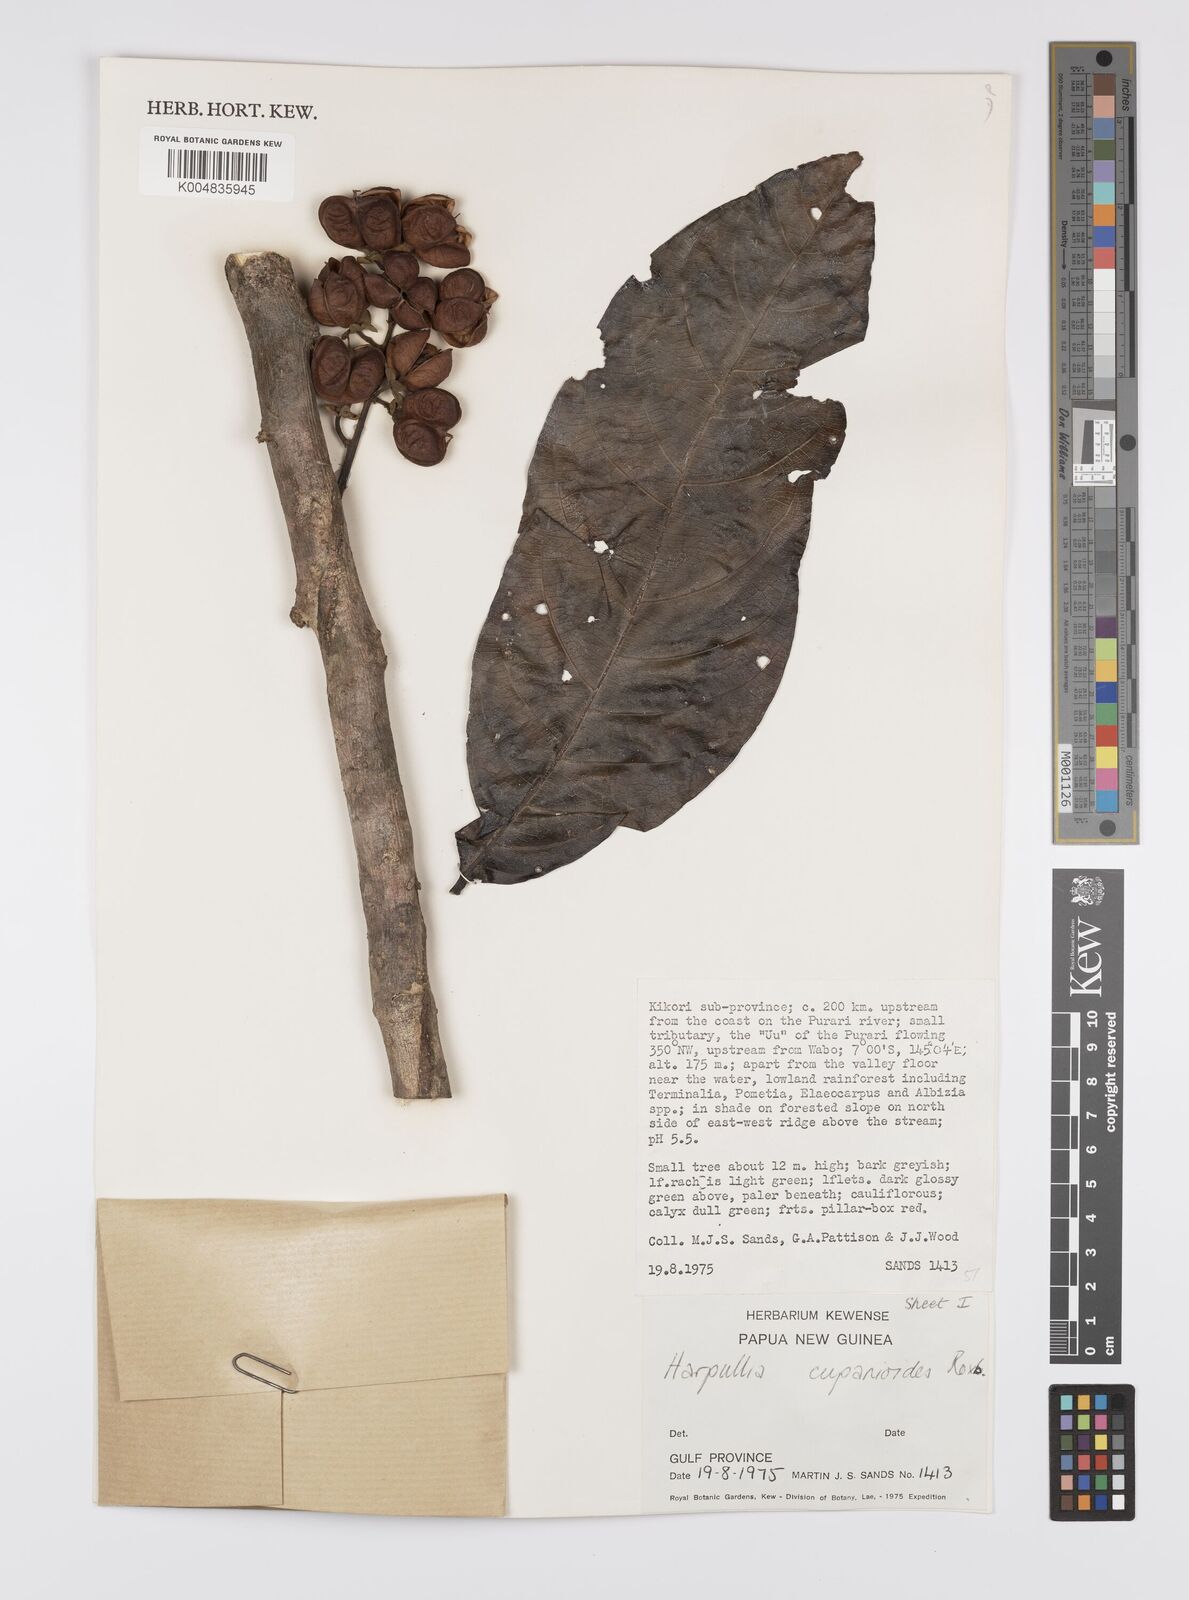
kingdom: Plantae
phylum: Tracheophyta
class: Magnoliopsida
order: Sapindales
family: Sapindaceae
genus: Harpullia
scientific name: Harpullia cupanioides
